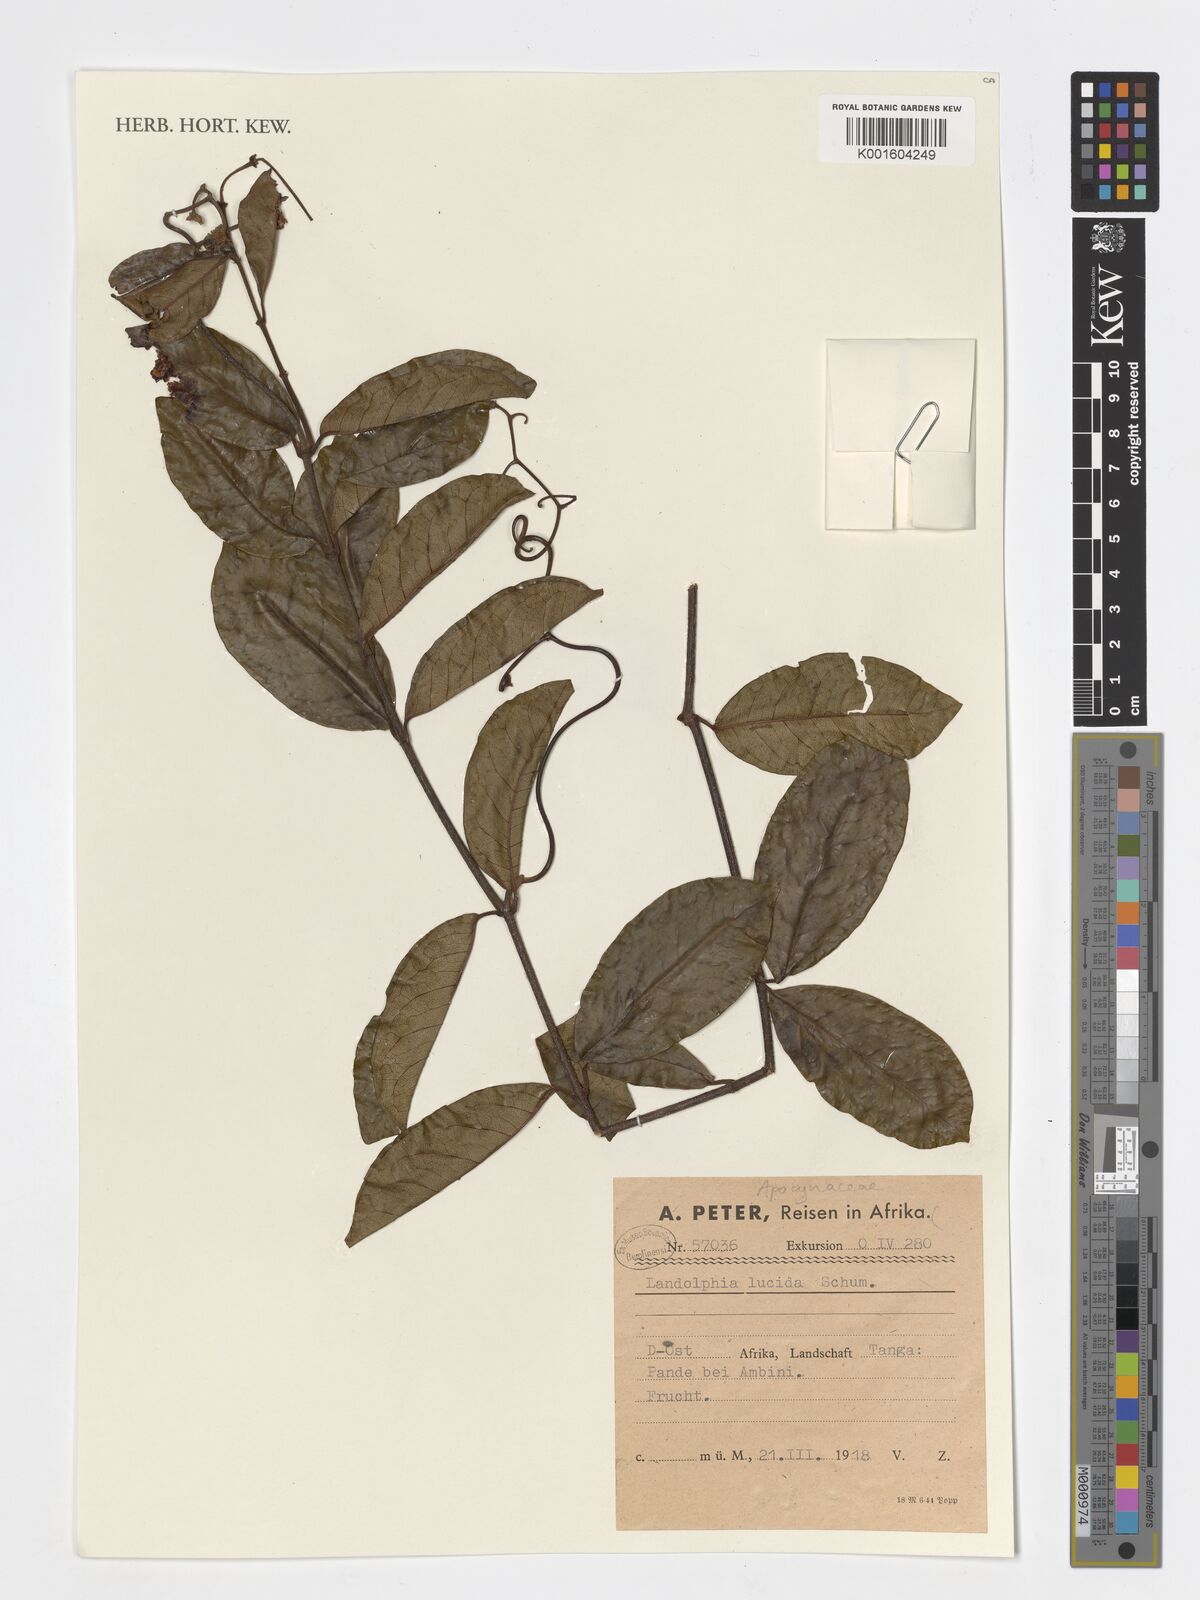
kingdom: Plantae
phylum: Tracheophyta
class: Magnoliopsida
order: Gentianales
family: Apocynaceae
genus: Dictyophleba
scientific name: Dictyophleba lucida
